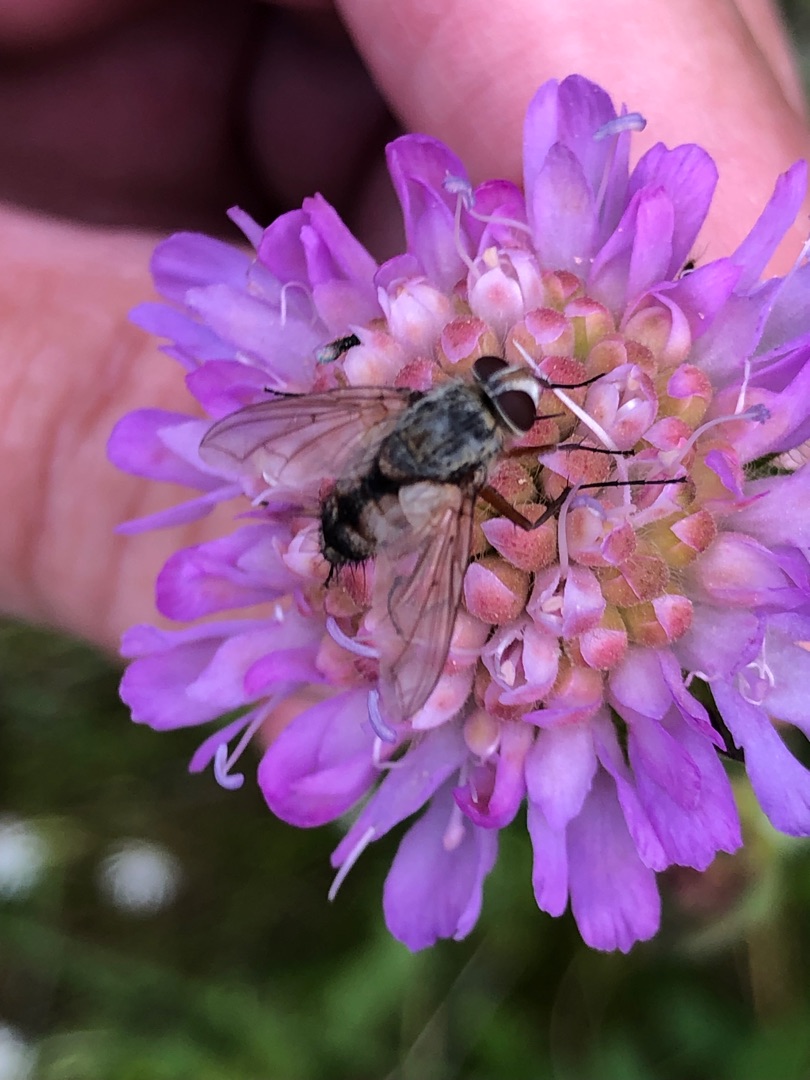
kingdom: Animalia
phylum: Arthropoda
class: Insecta
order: Diptera
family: Tachinidae
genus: Prosena
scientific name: Prosena siberita
